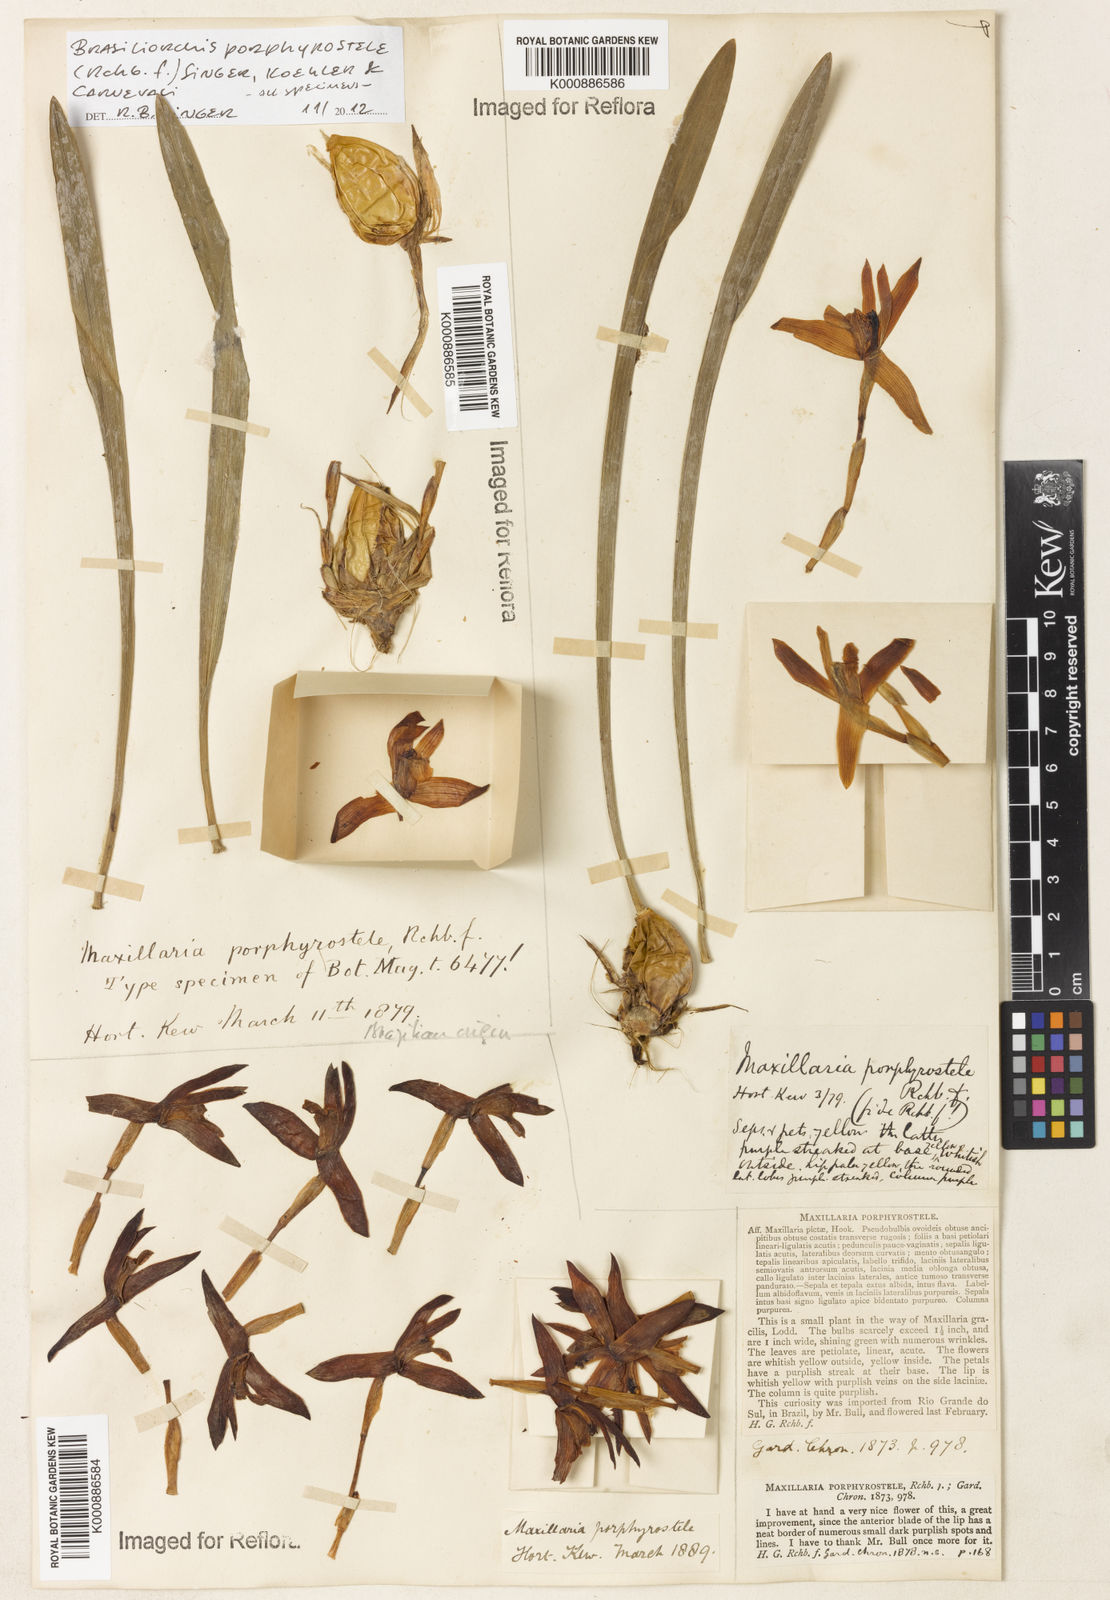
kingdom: Plantae
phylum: Tracheophyta
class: Liliopsida
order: Asparagales
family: Orchidaceae
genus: Maxillaria
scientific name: Maxillaria porphyrostele
